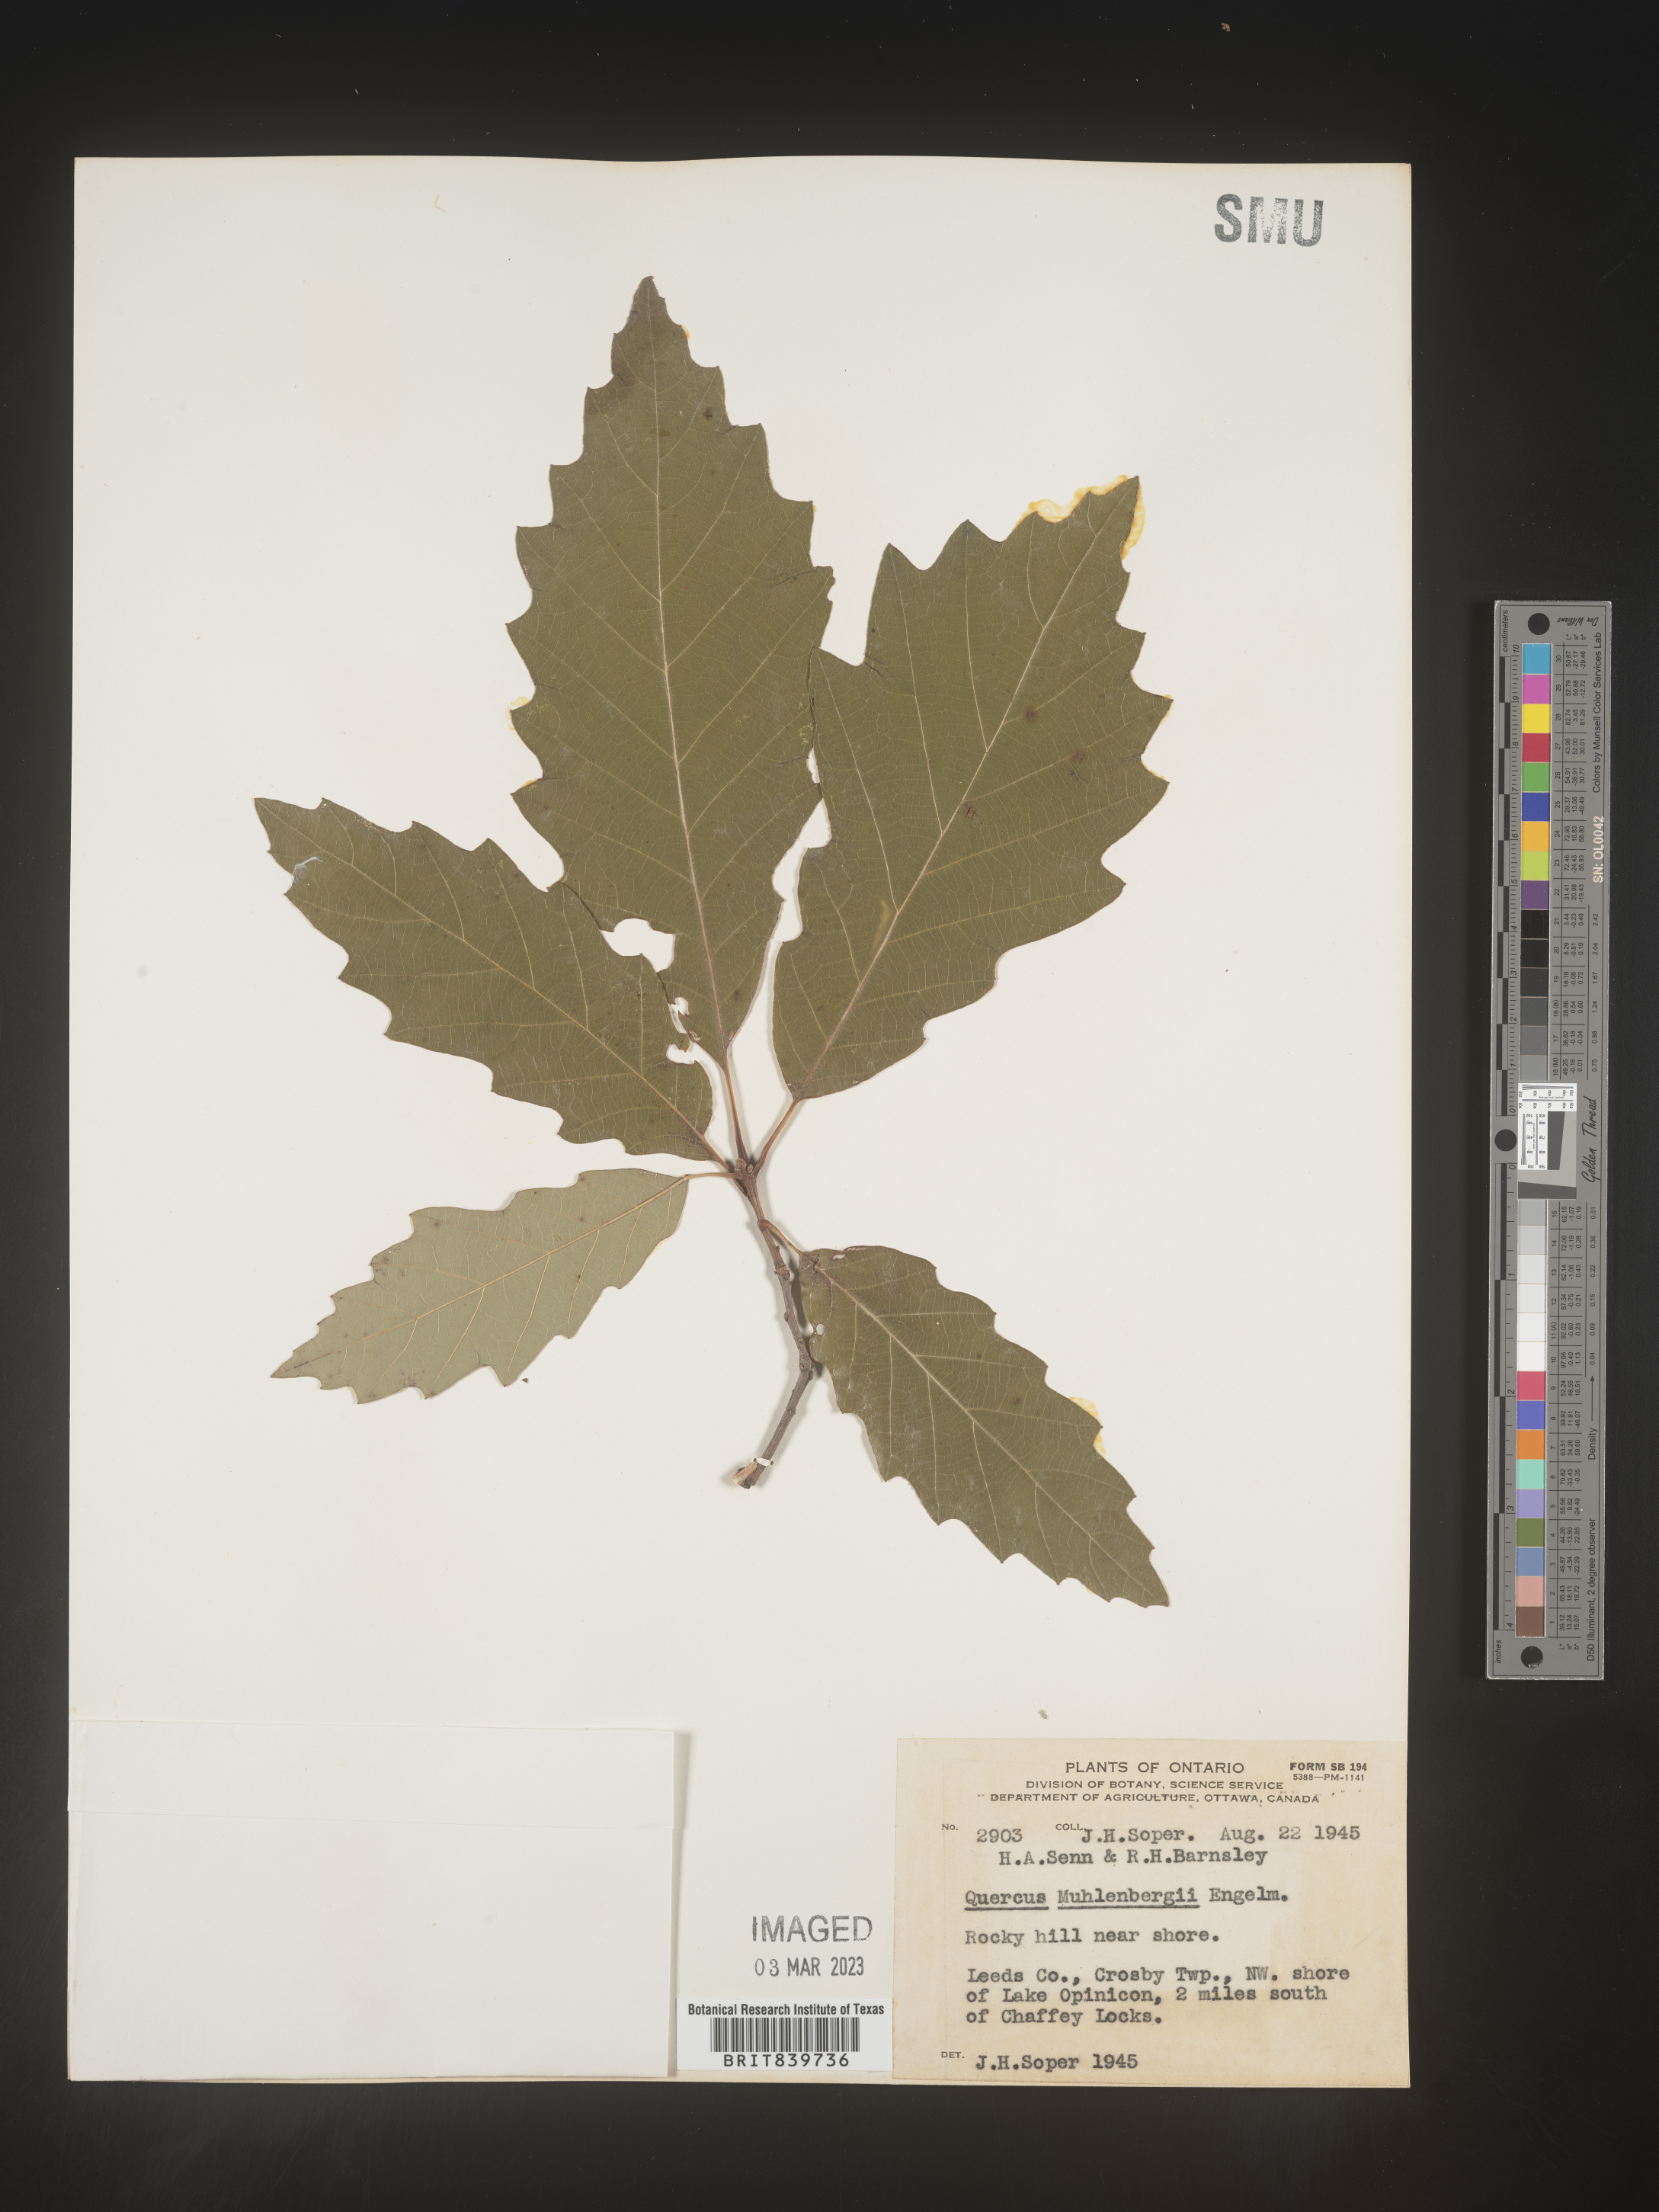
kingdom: Plantae
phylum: Tracheophyta
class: Magnoliopsida
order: Fagales
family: Fagaceae
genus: Quercus
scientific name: Quercus muehlenbergii
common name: Chinkapin oak
